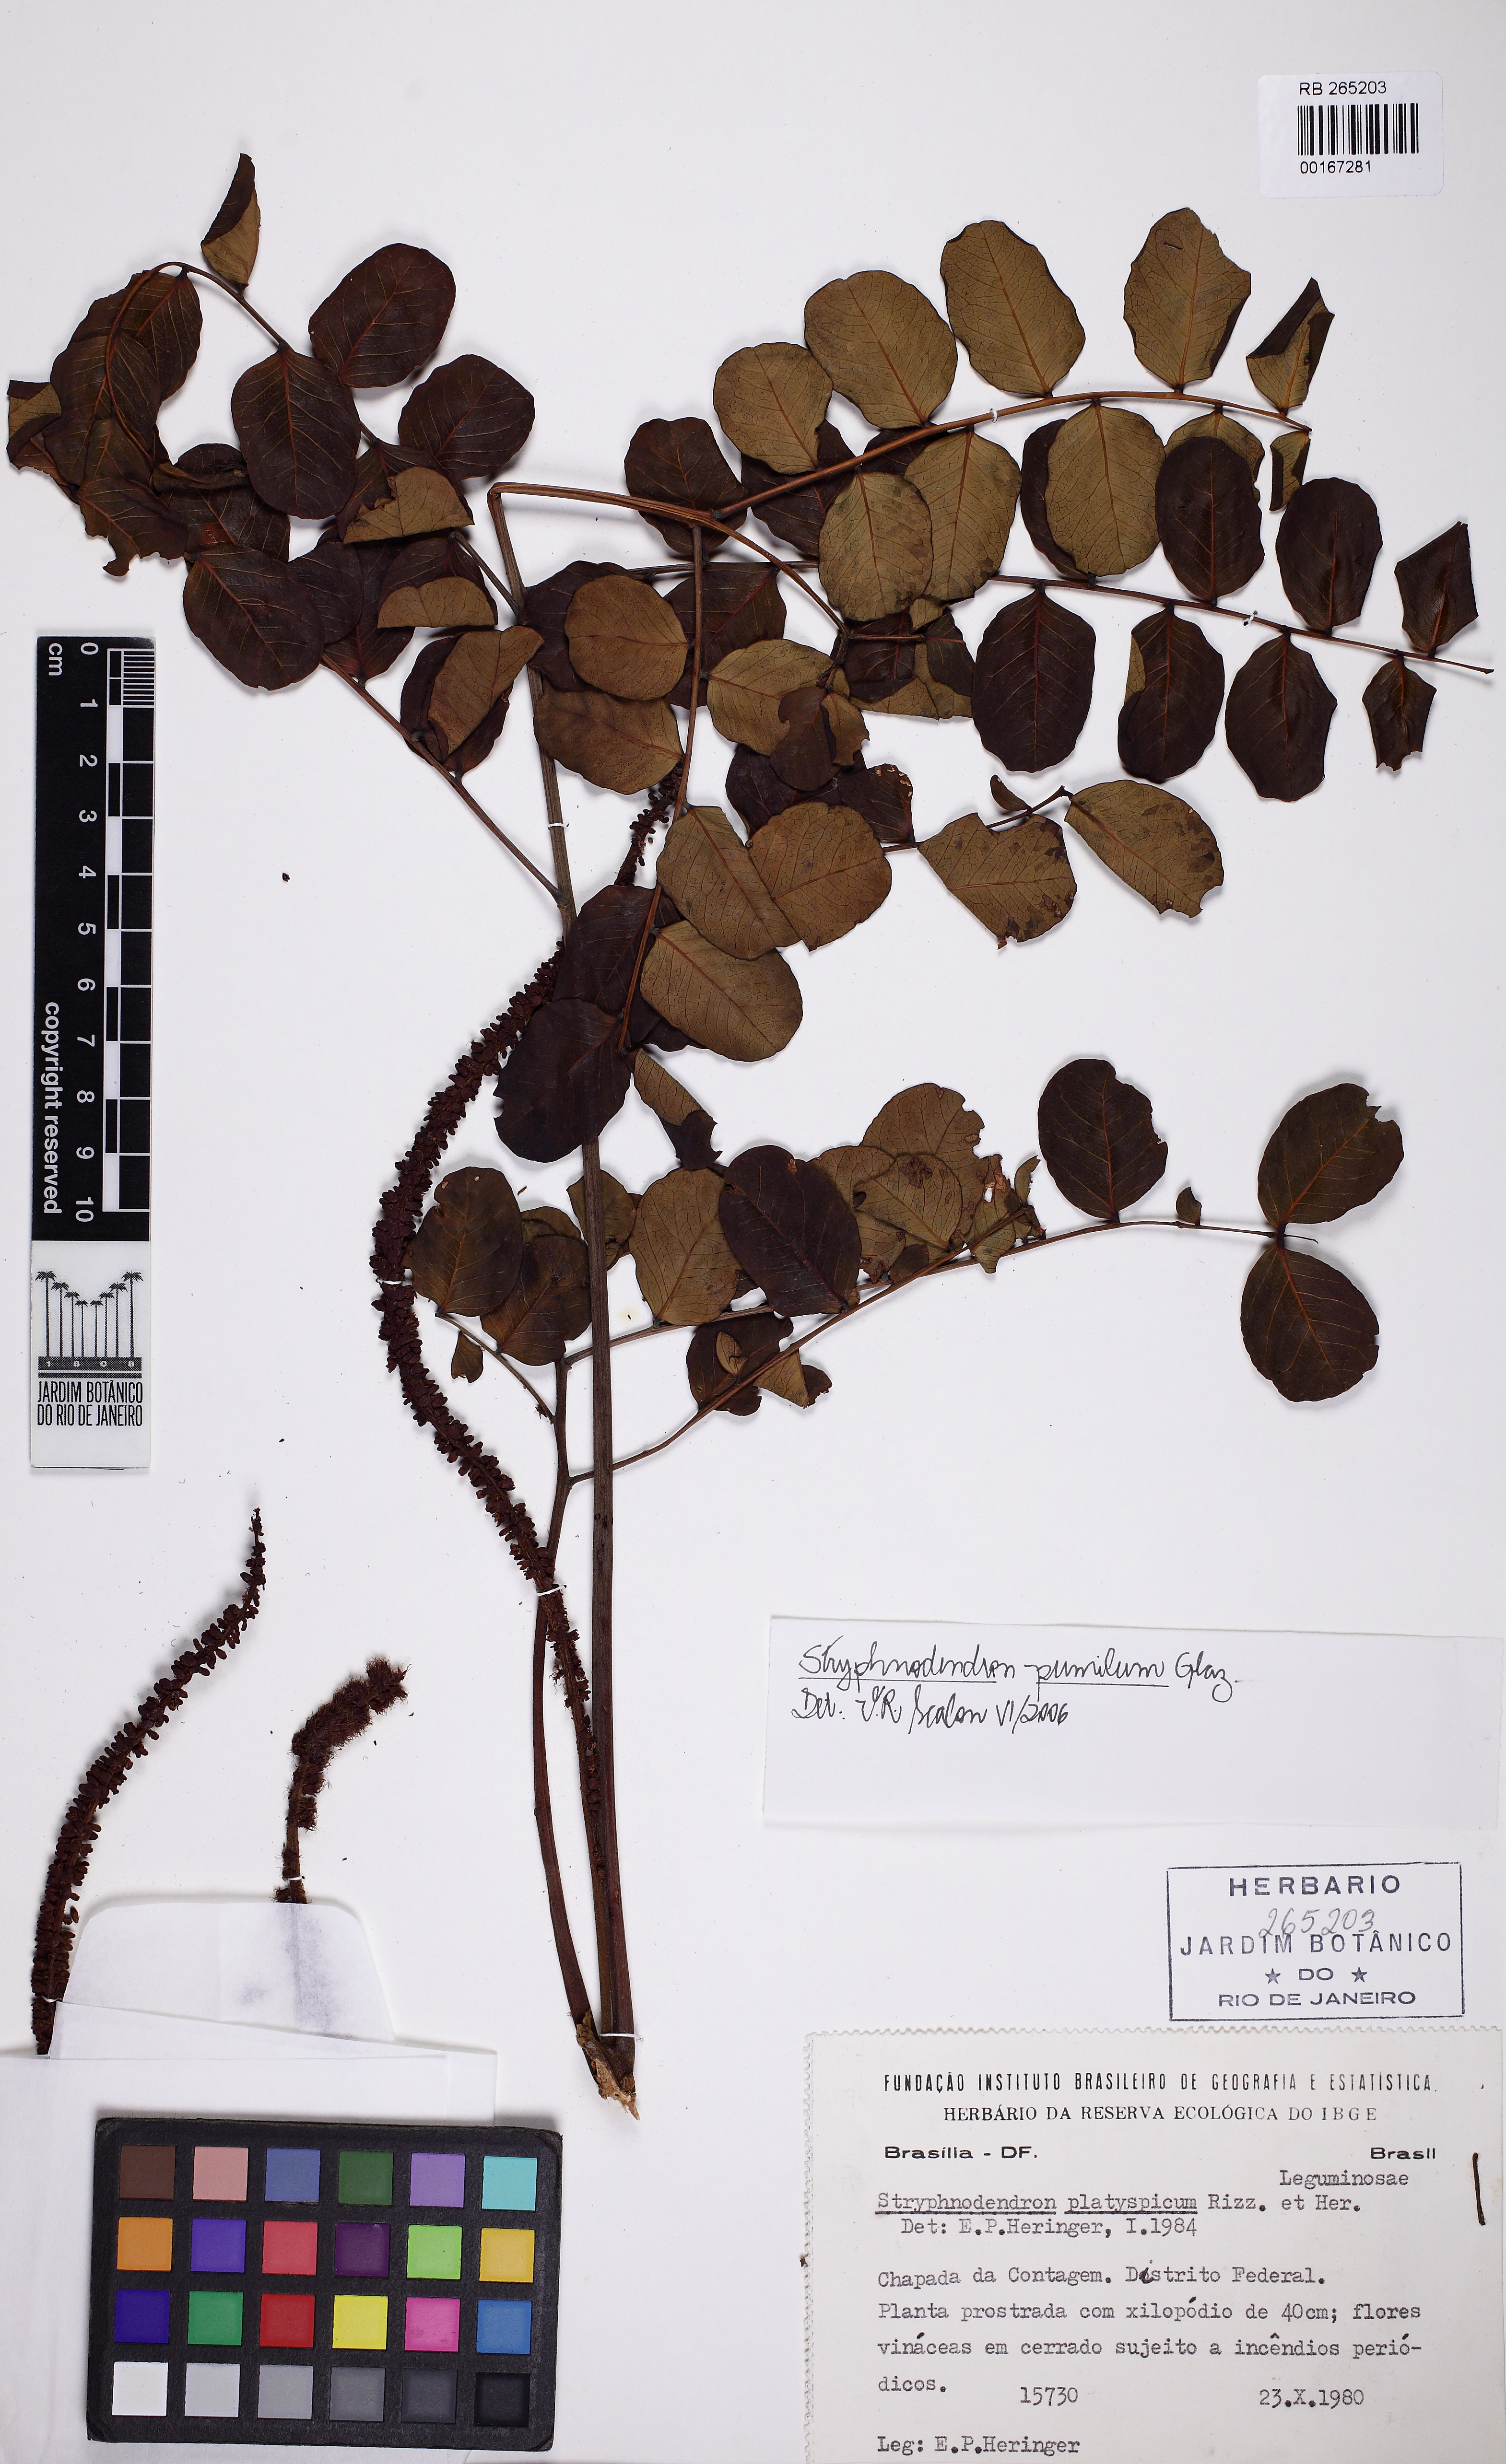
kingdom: Plantae
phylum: Tracheophyta
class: Magnoliopsida
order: Fabales
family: Fabaceae
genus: Stryphnodendron
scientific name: Stryphnodendron platyspicum
